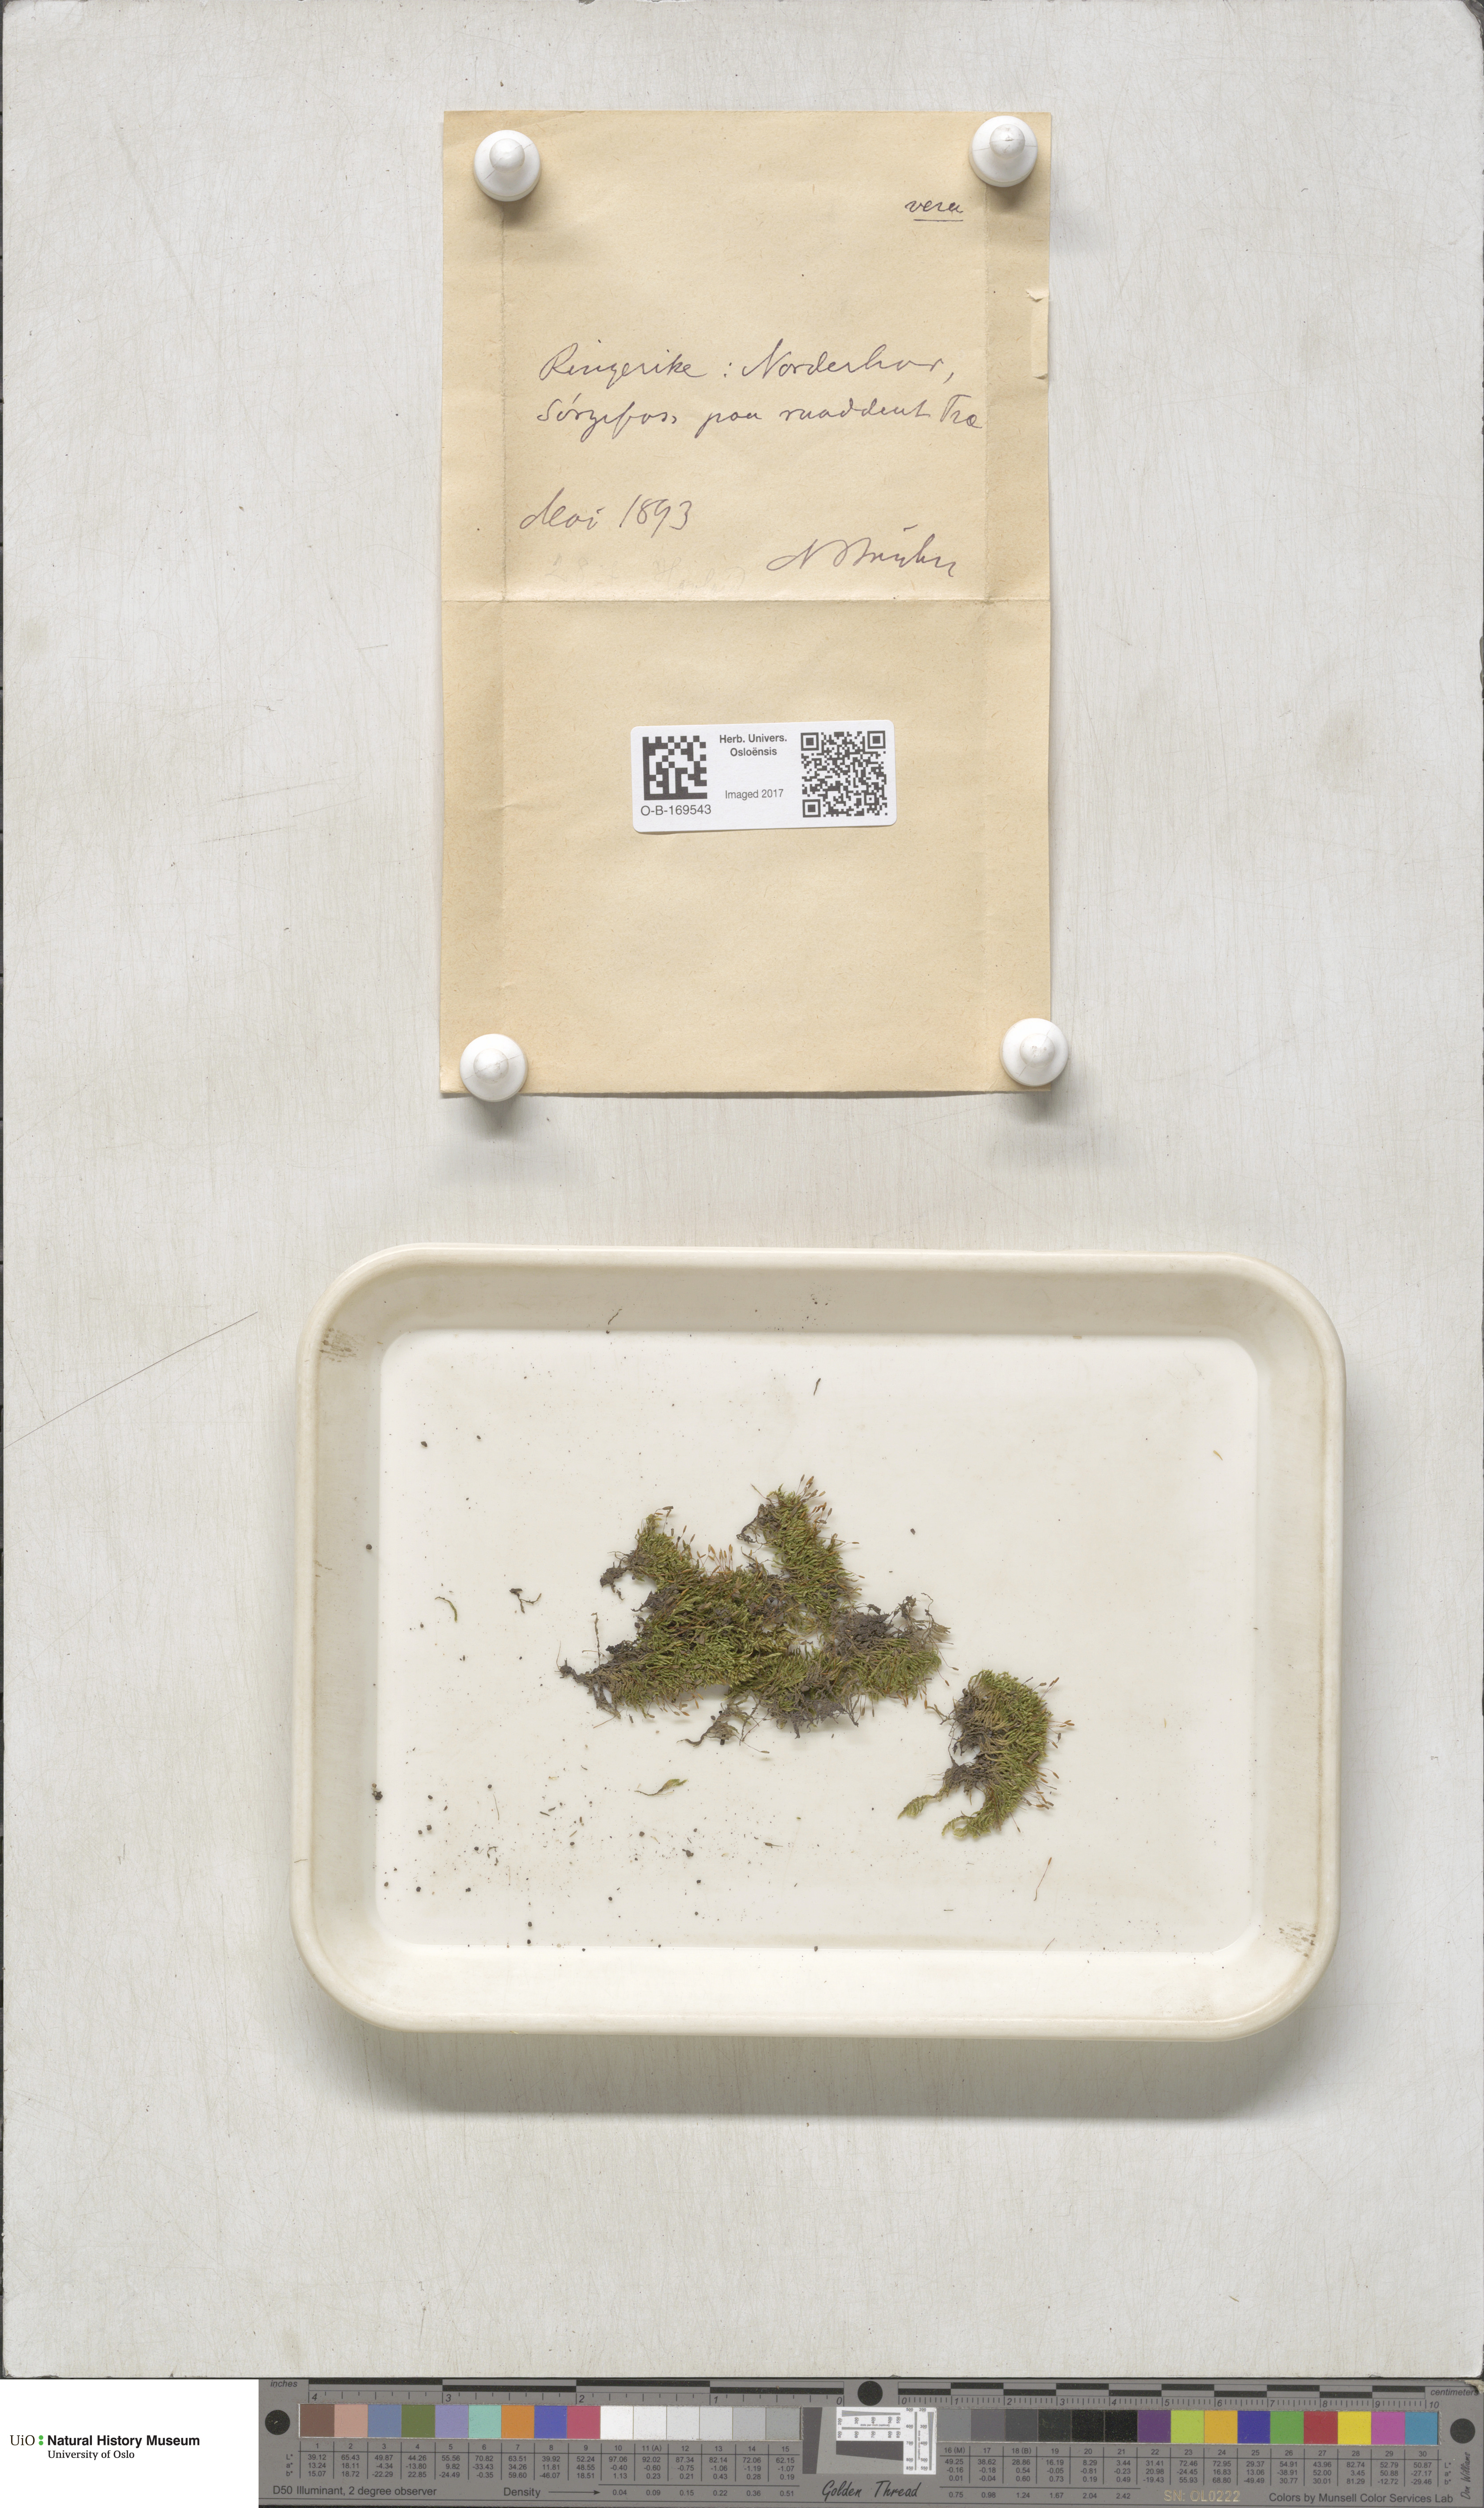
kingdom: Plantae
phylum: Bryophyta
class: Bryopsida
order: Hypnales
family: Pylaisiaceae
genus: Pylaisia
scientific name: Pylaisia polyantha
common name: Many-flowered leskea
